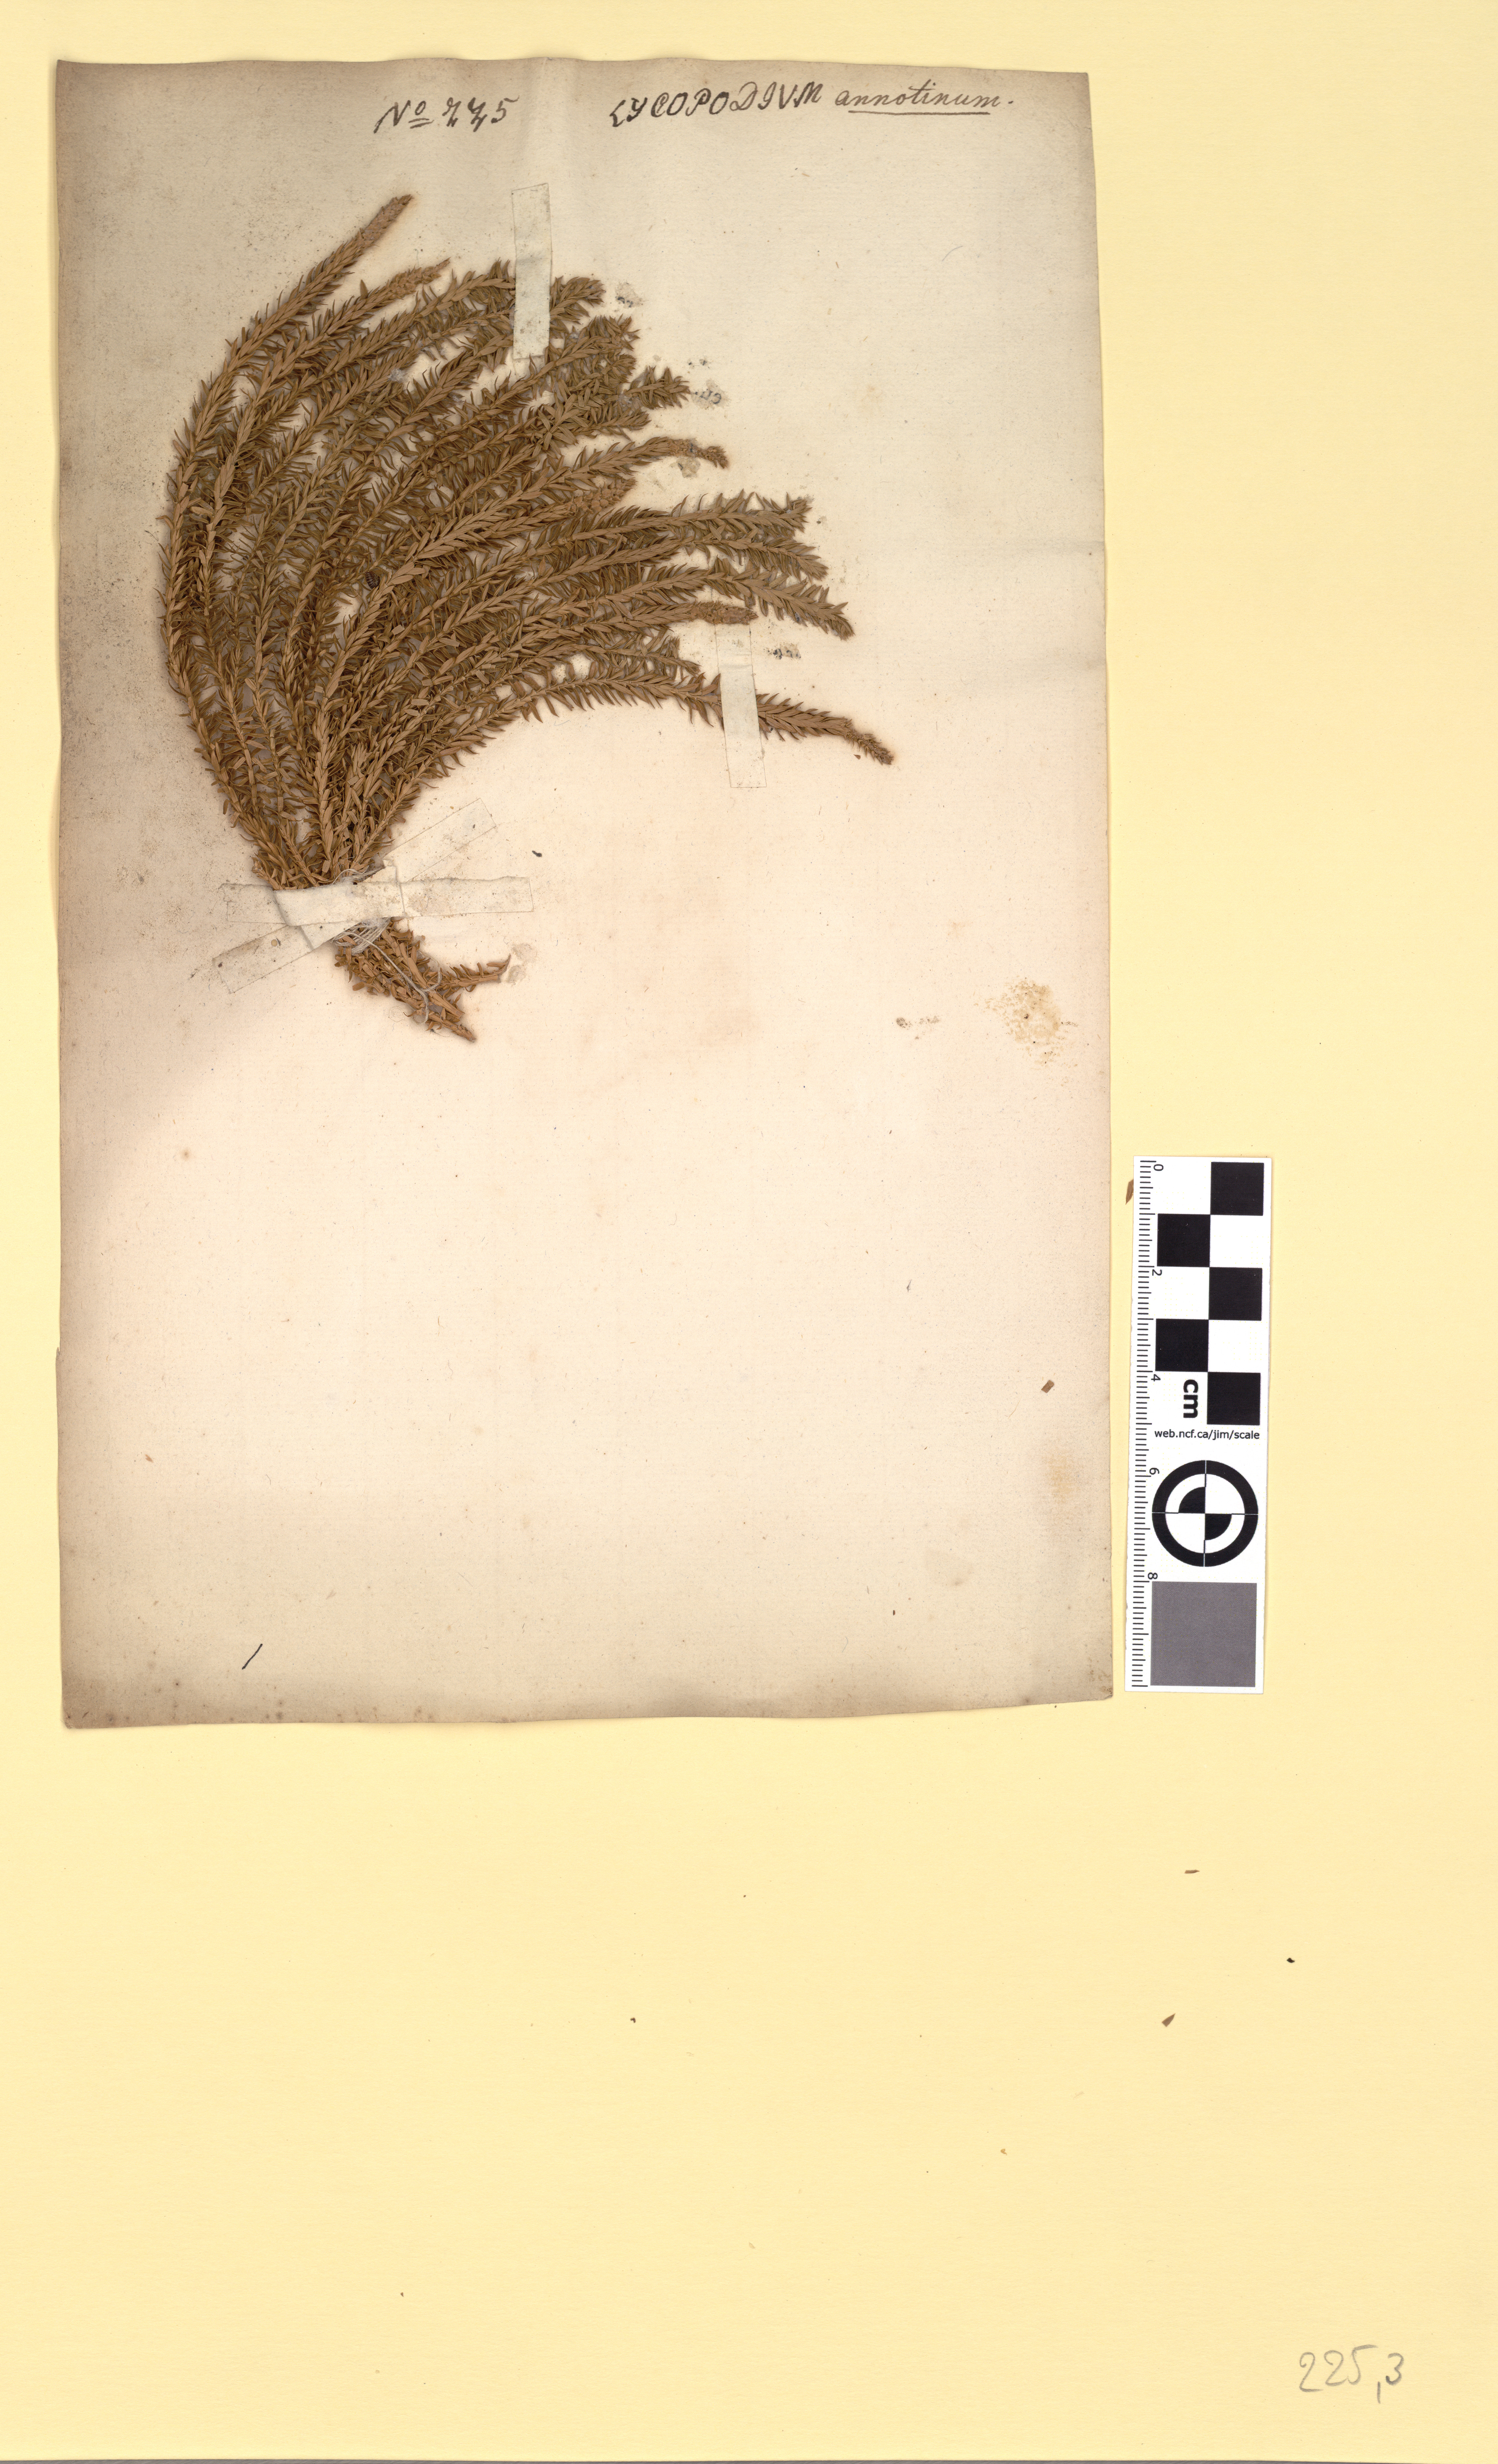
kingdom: Plantae
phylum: Tracheophyta
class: Lycopodiopsida
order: Lycopodiales
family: Lycopodiaceae
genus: Spinulum
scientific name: Spinulum annotinum
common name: Interrupted club-moss
